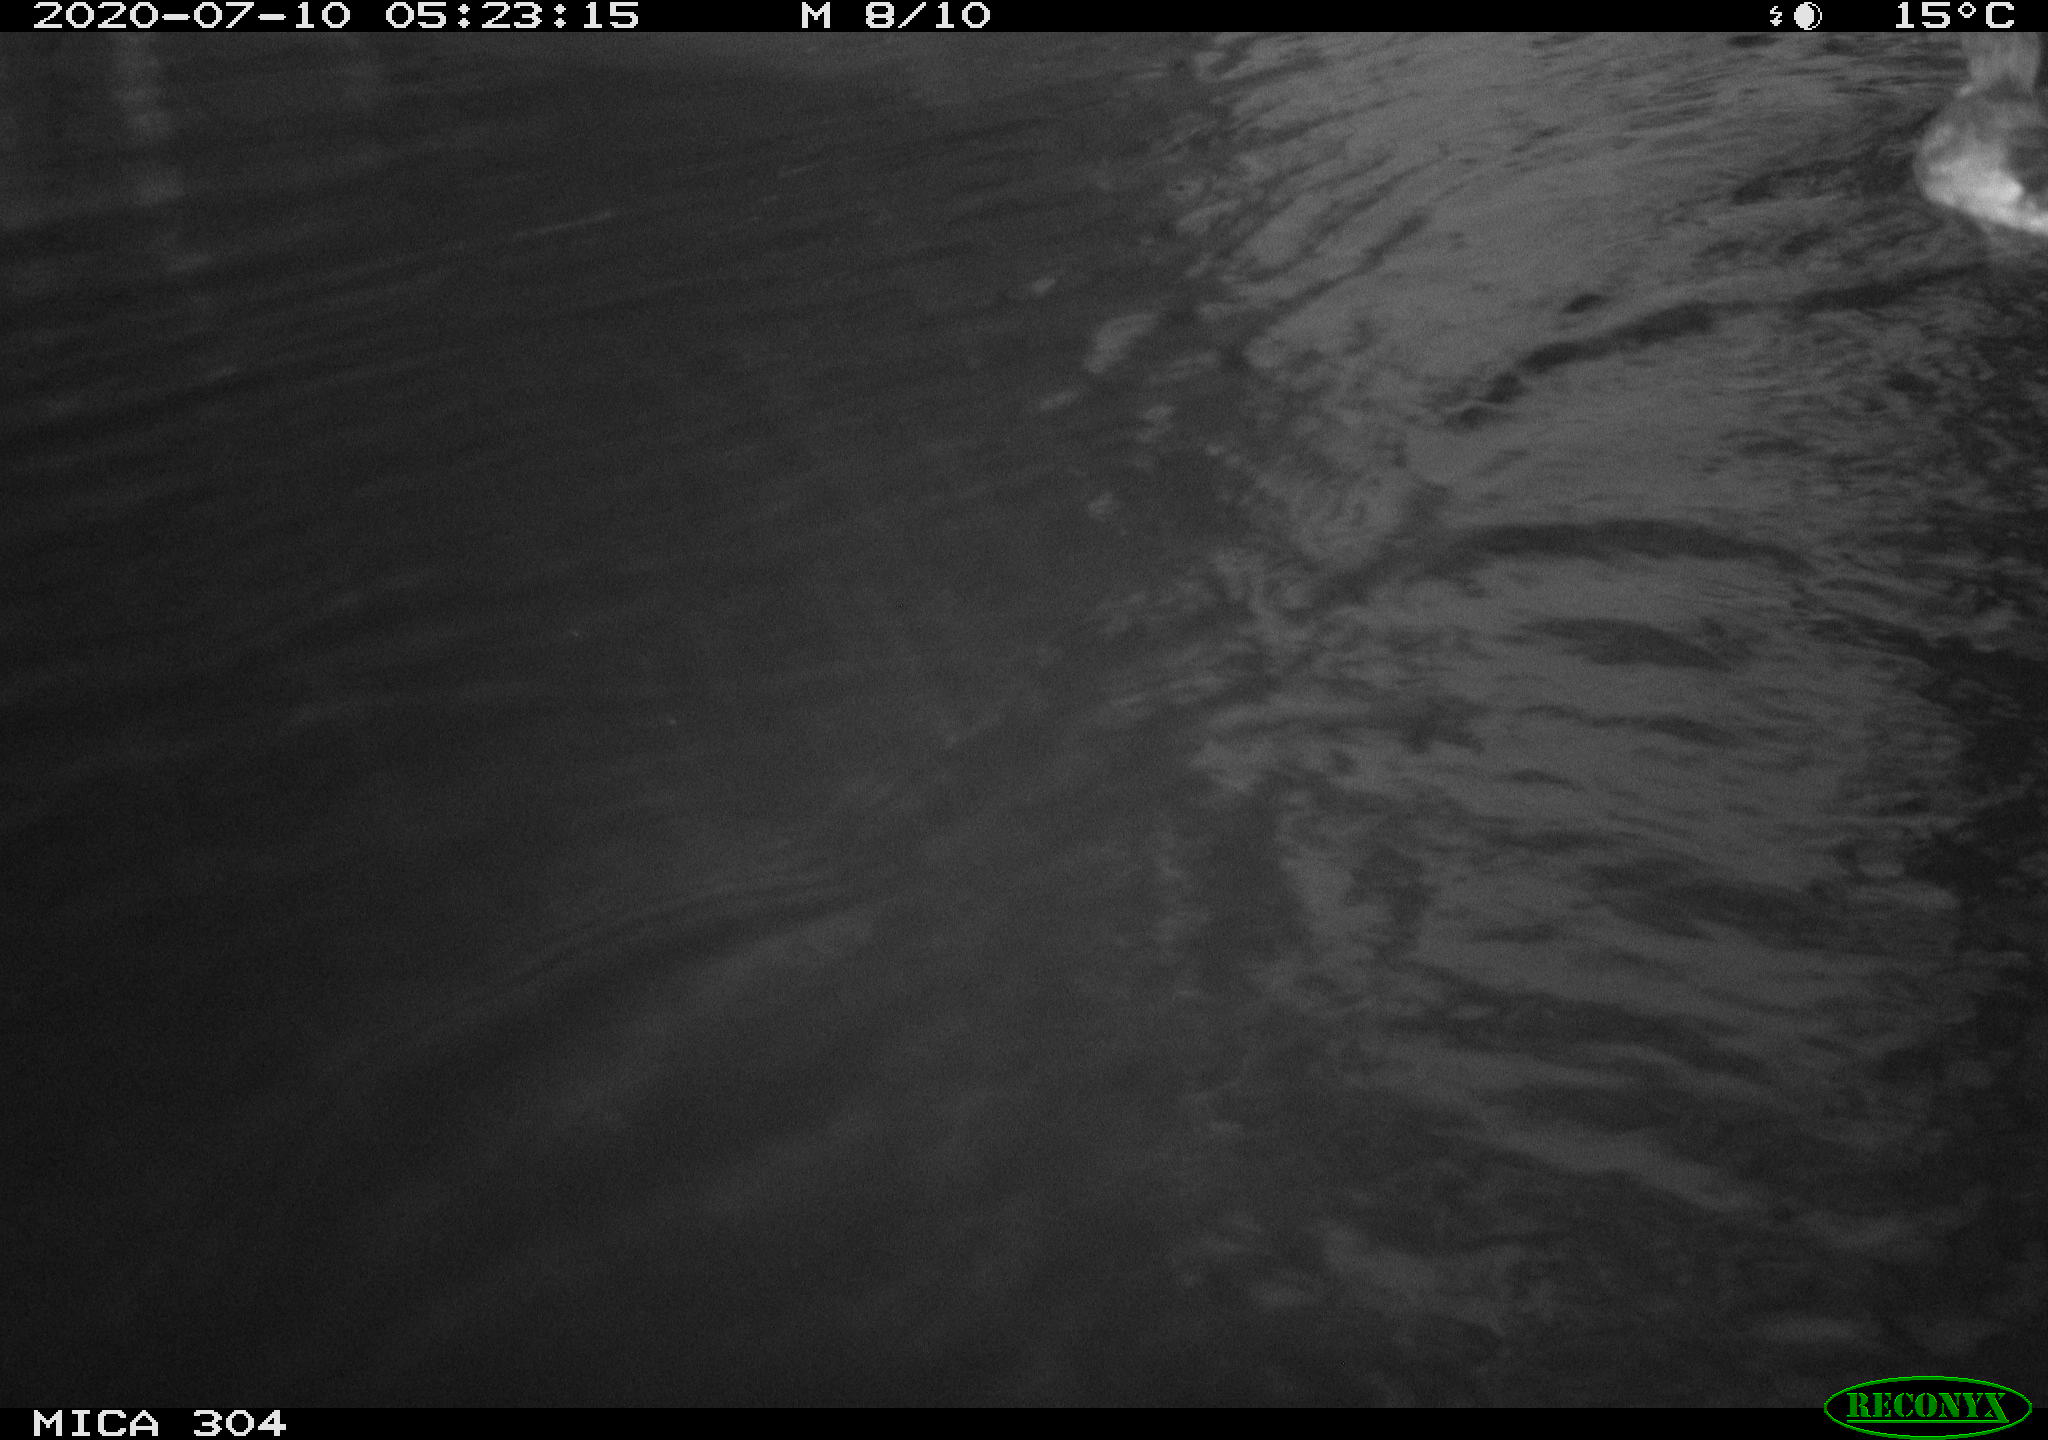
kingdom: Animalia
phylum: Chordata
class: Aves
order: Anseriformes
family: Anatidae
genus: Anas
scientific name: Anas platyrhynchos
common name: Mallard
